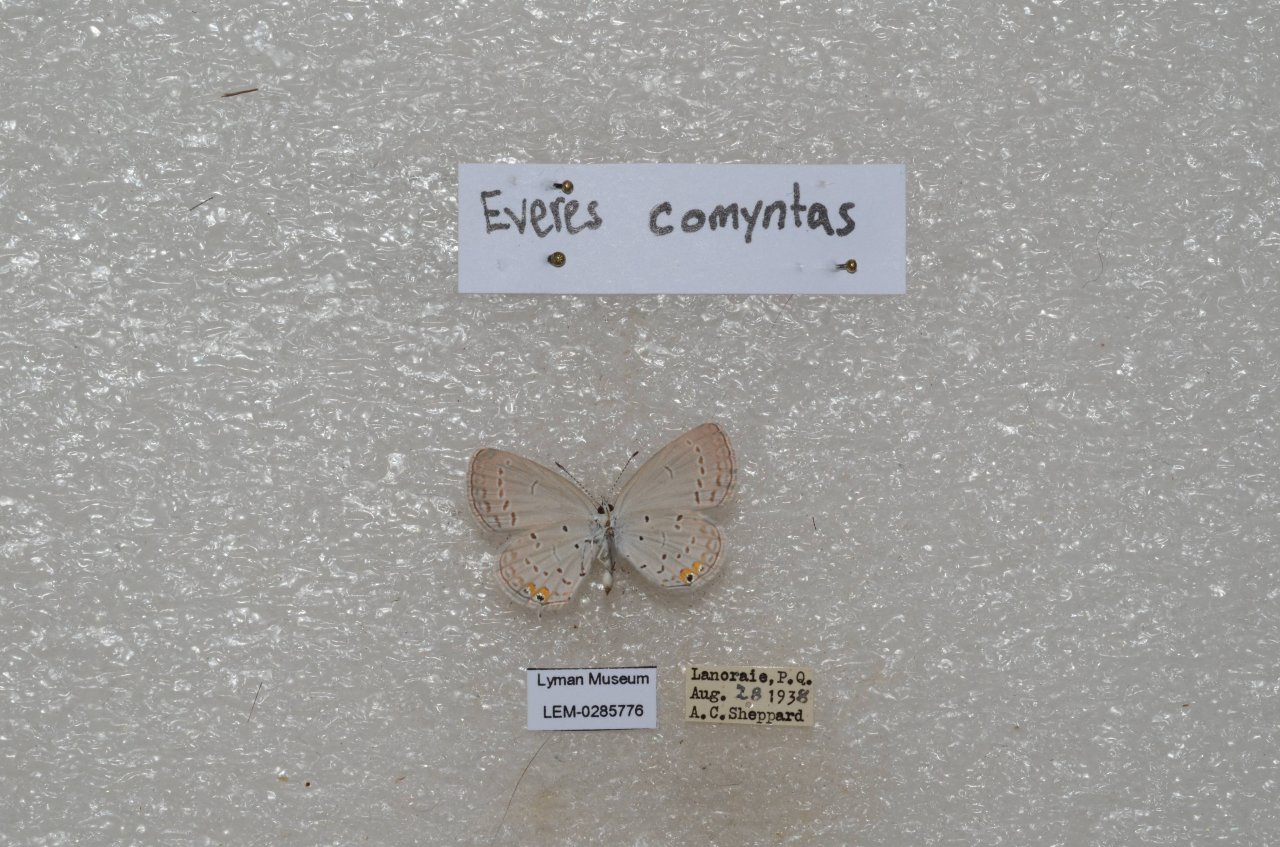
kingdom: Animalia
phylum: Arthropoda
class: Insecta
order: Lepidoptera
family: Lycaenidae
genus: Elkalyce
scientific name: Elkalyce comyntas
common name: Eastern Tailed-Blue
